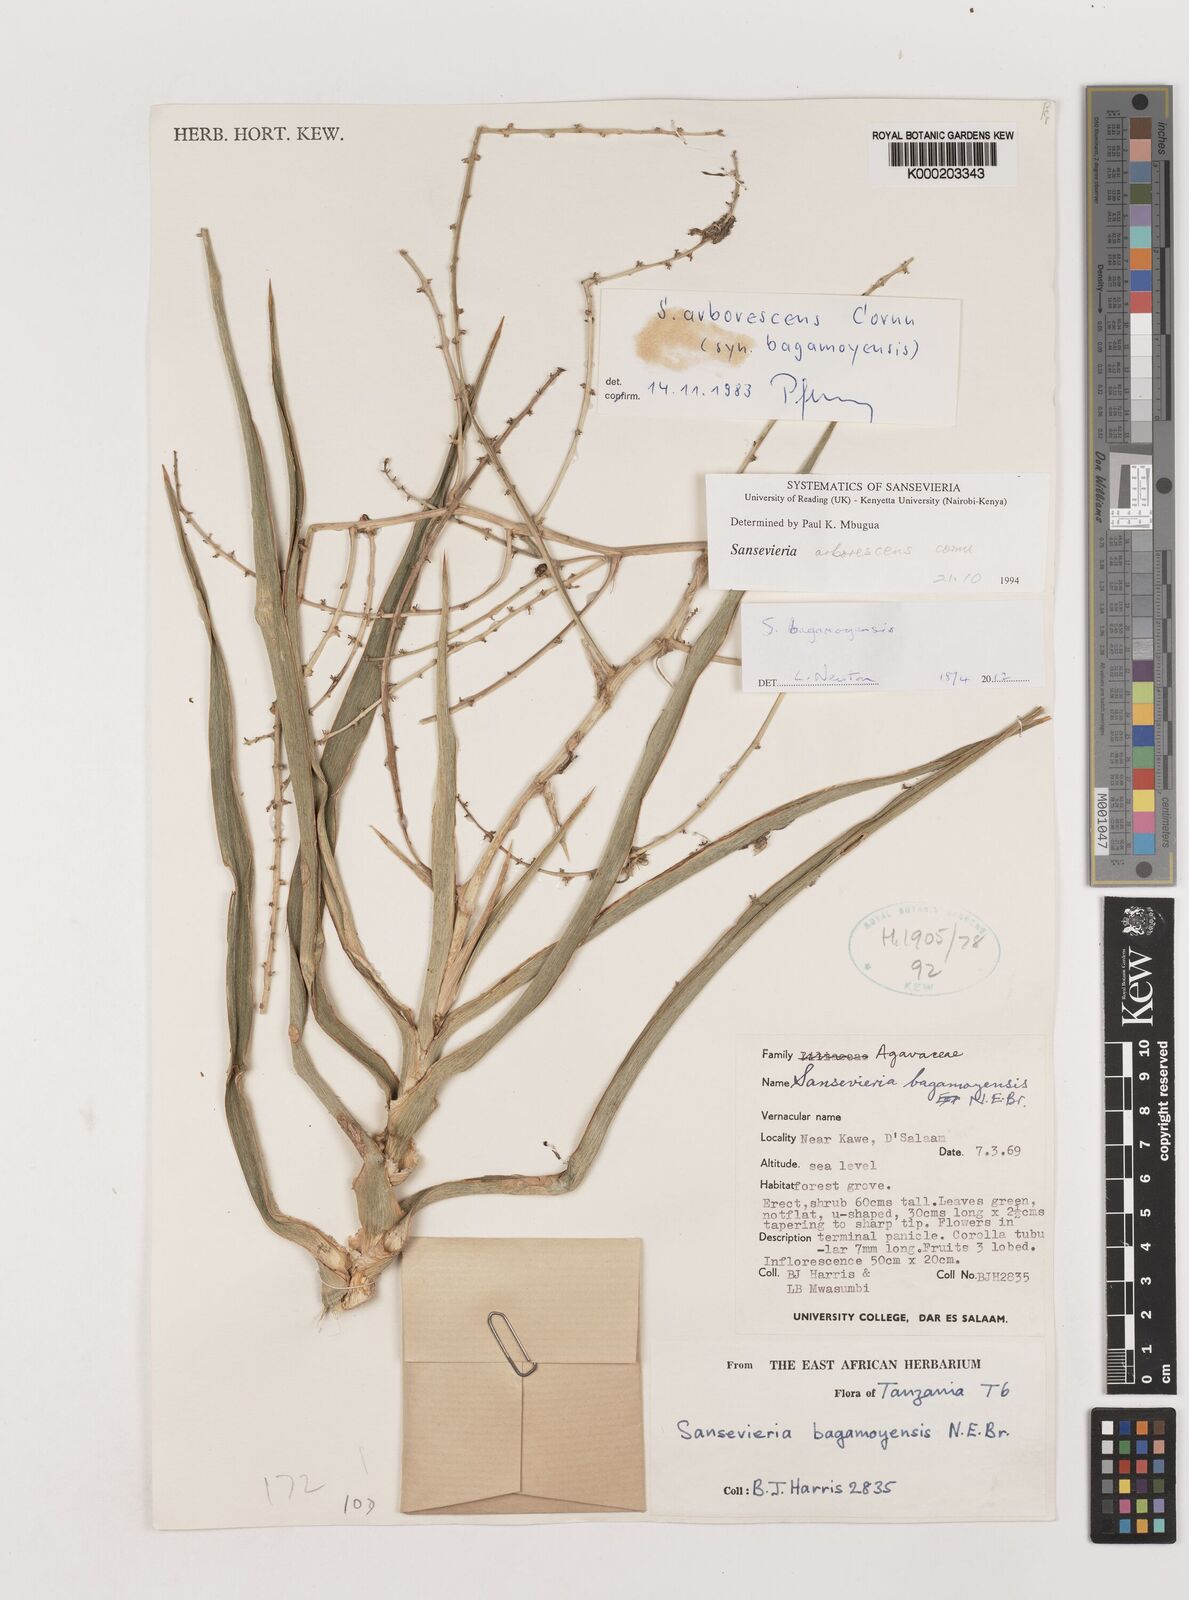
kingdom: Plantae
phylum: Tracheophyta
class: Liliopsida
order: Asparagales
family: Asparagaceae
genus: Dracaena
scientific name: Dracaena
